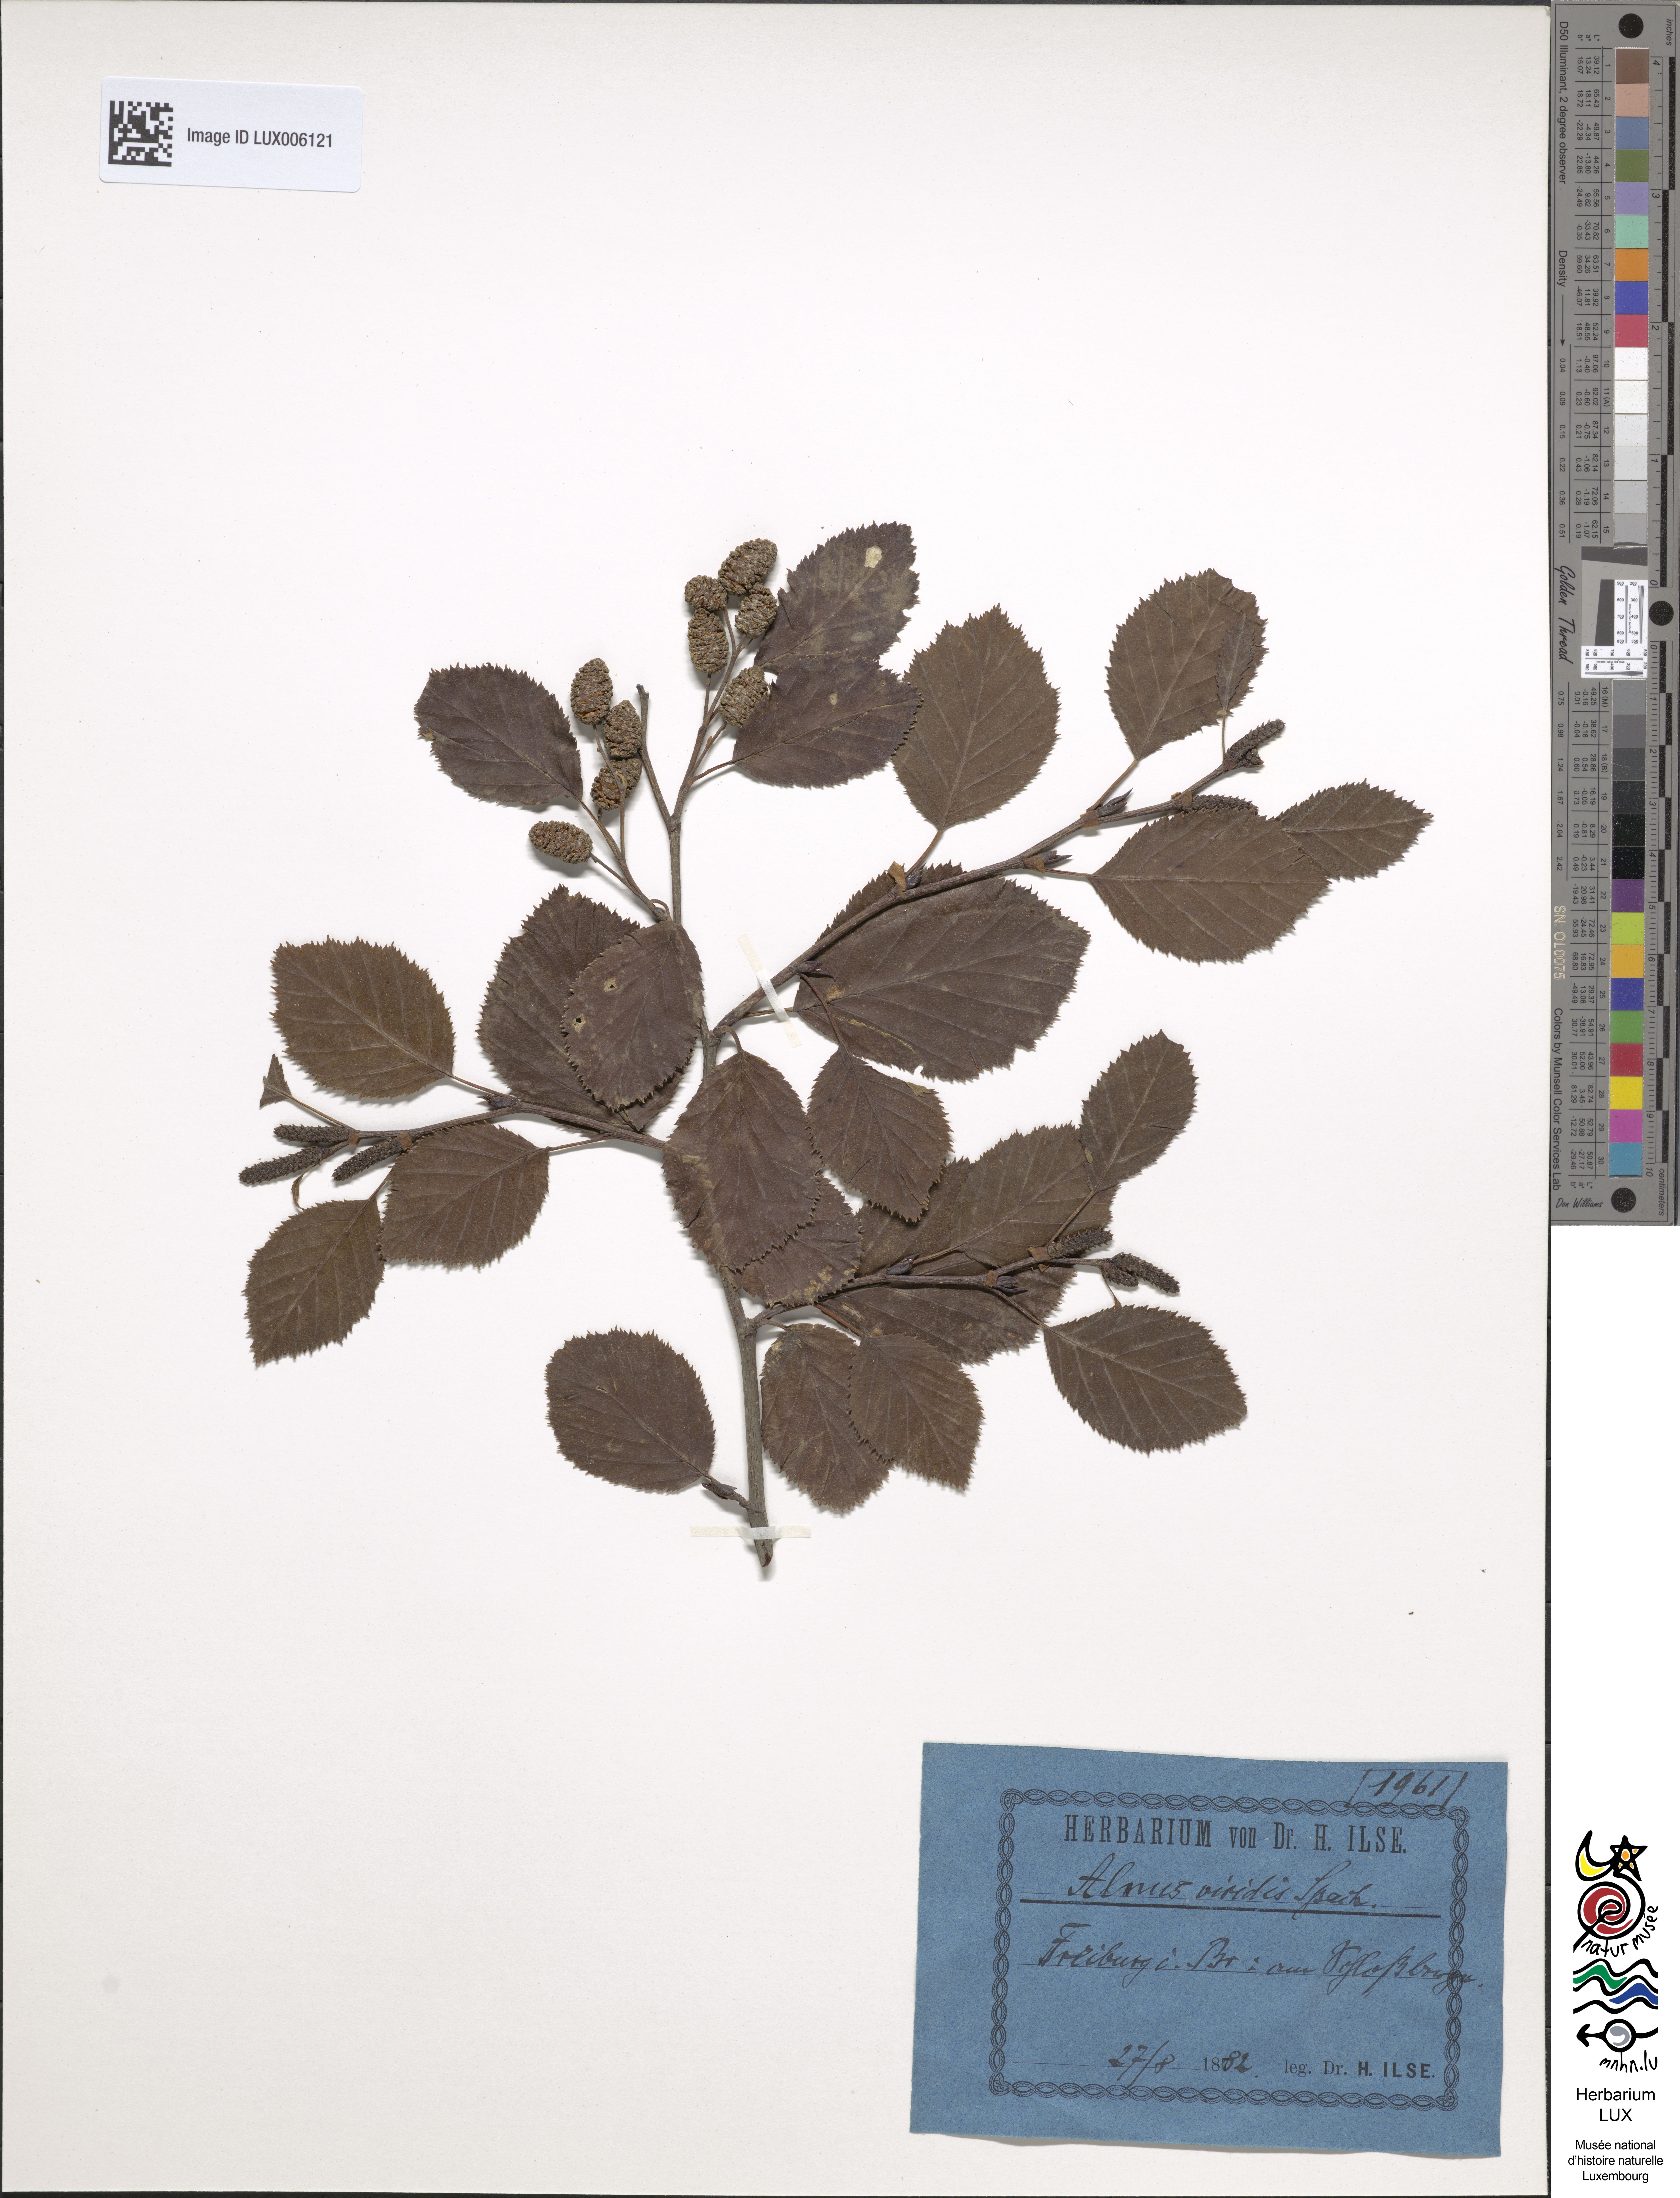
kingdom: Plantae
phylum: Tracheophyta
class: Magnoliopsida
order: Fagales
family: Betulaceae
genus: Alnus
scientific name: Alnus alnobetula
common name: Green alder
